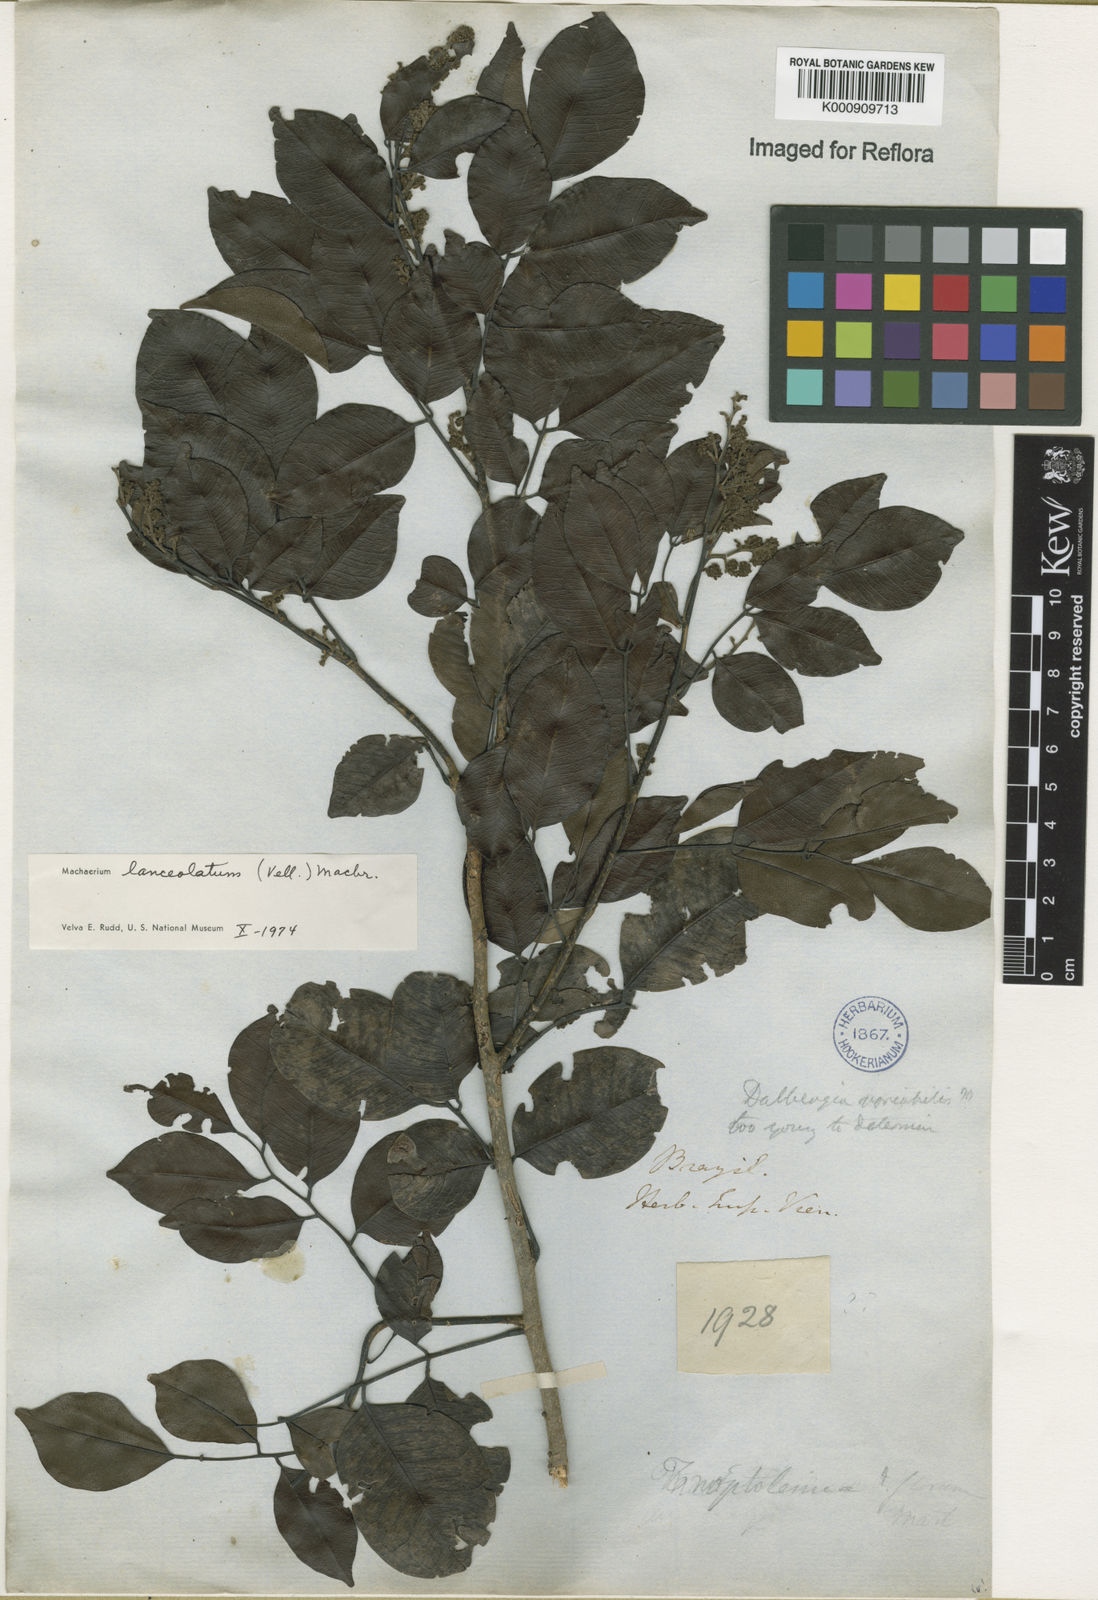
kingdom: Plantae
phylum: Tracheophyta
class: Magnoliopsida
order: Fabales
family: Fabaceae
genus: Machaerium
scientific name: Machaerium lanceolatum
